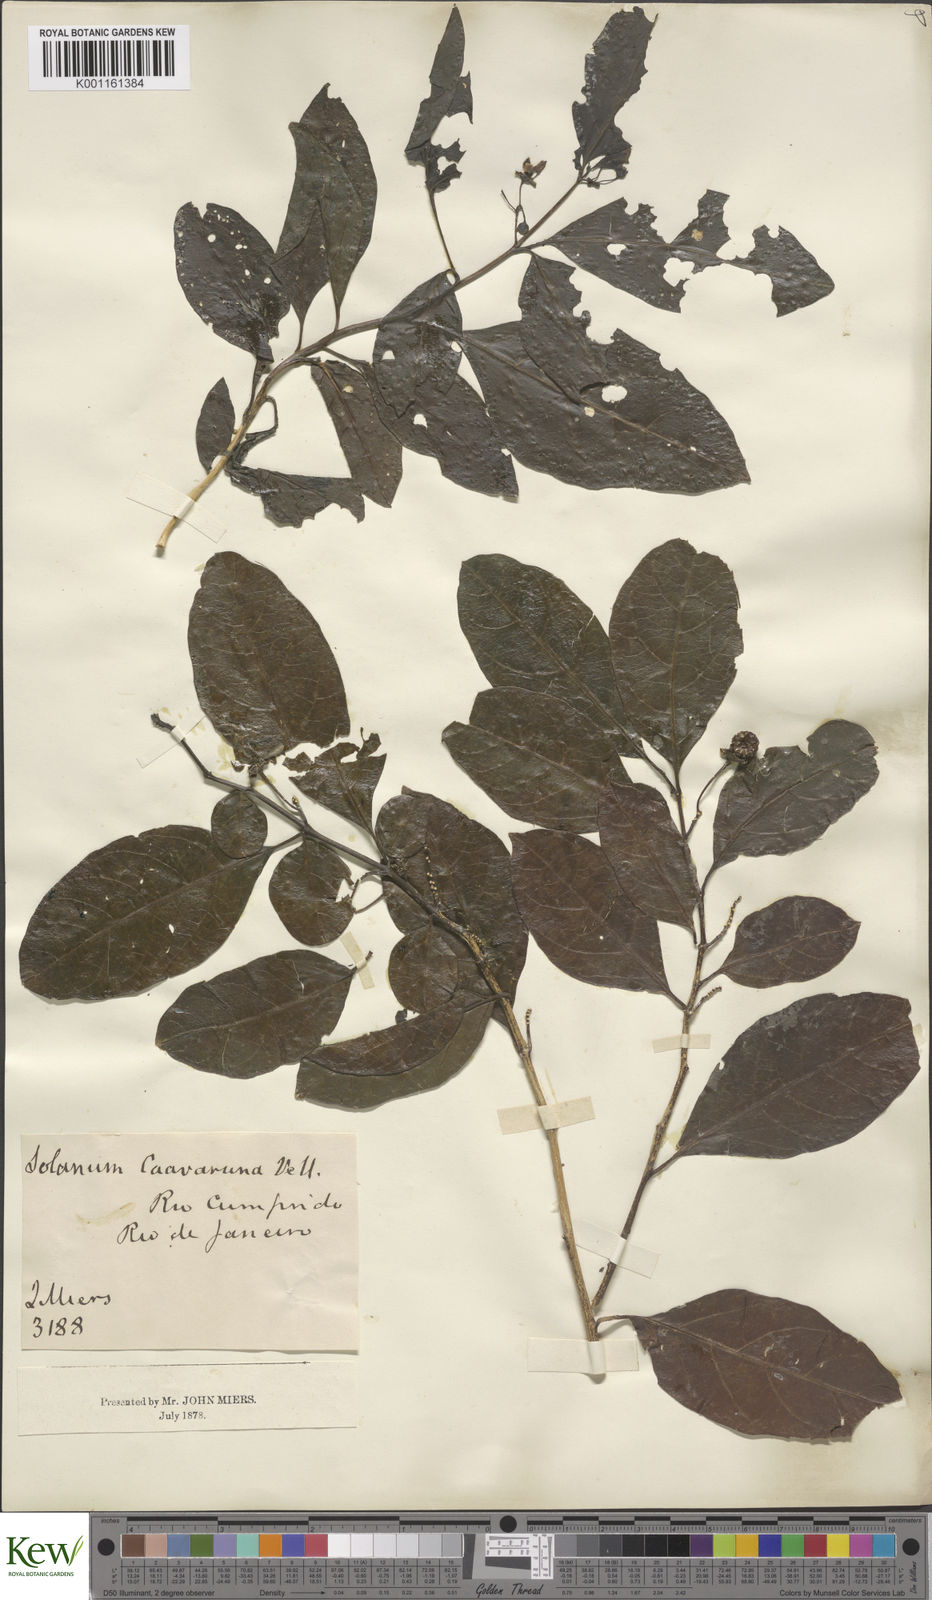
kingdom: Plantae
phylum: Tracheophyta
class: Magnoliopsida
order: Solanales
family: Solanaceae
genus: Solanum
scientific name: Solanum caavurana
